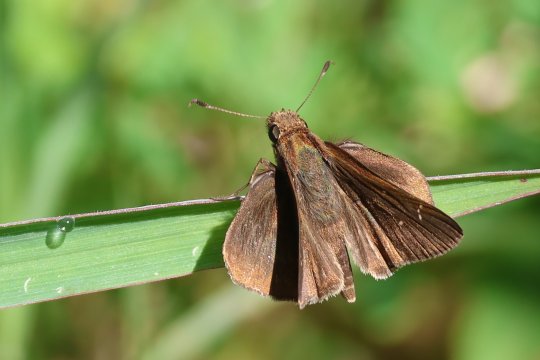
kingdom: Animalia
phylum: Arthropoda
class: Insecta
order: Lepidoptera
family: Hesperiidae
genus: Lerema
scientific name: Lerema accius
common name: Clouded Skipper
